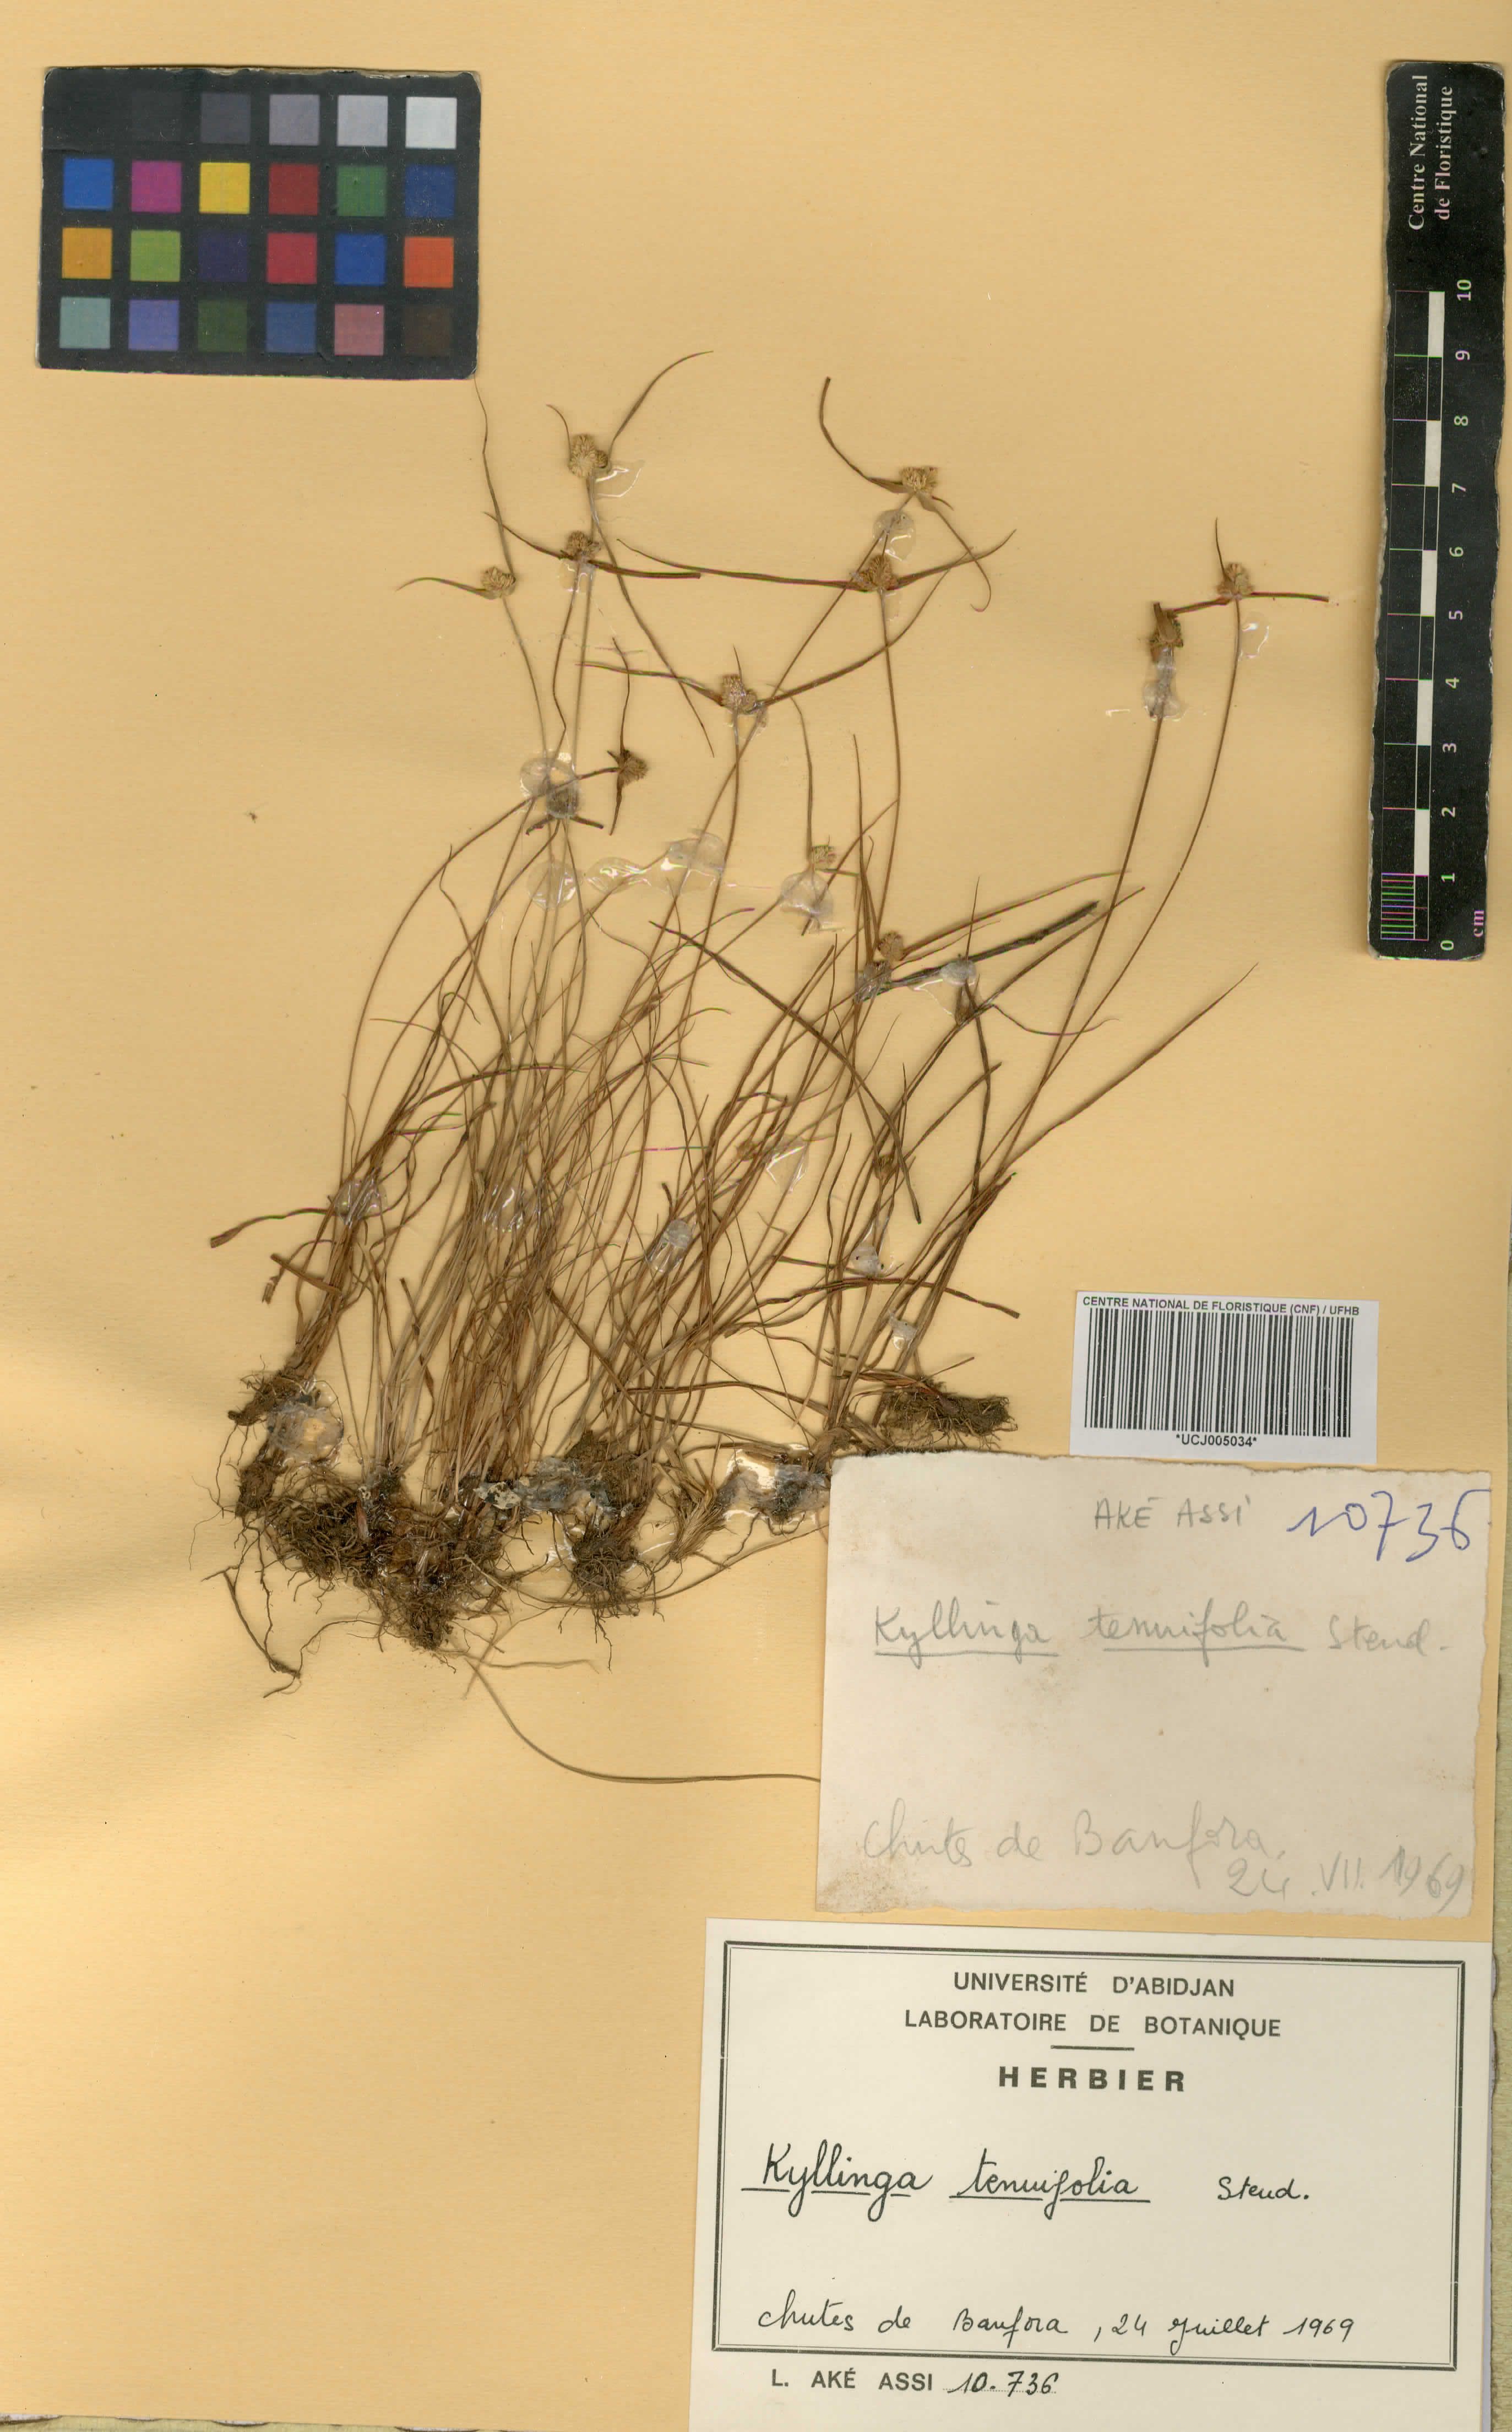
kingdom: Plantae
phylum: Tracheophyta
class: Liliopsida
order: Poales
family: Cyperaceae
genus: Cyperus
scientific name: Cyperus tenuifolius
